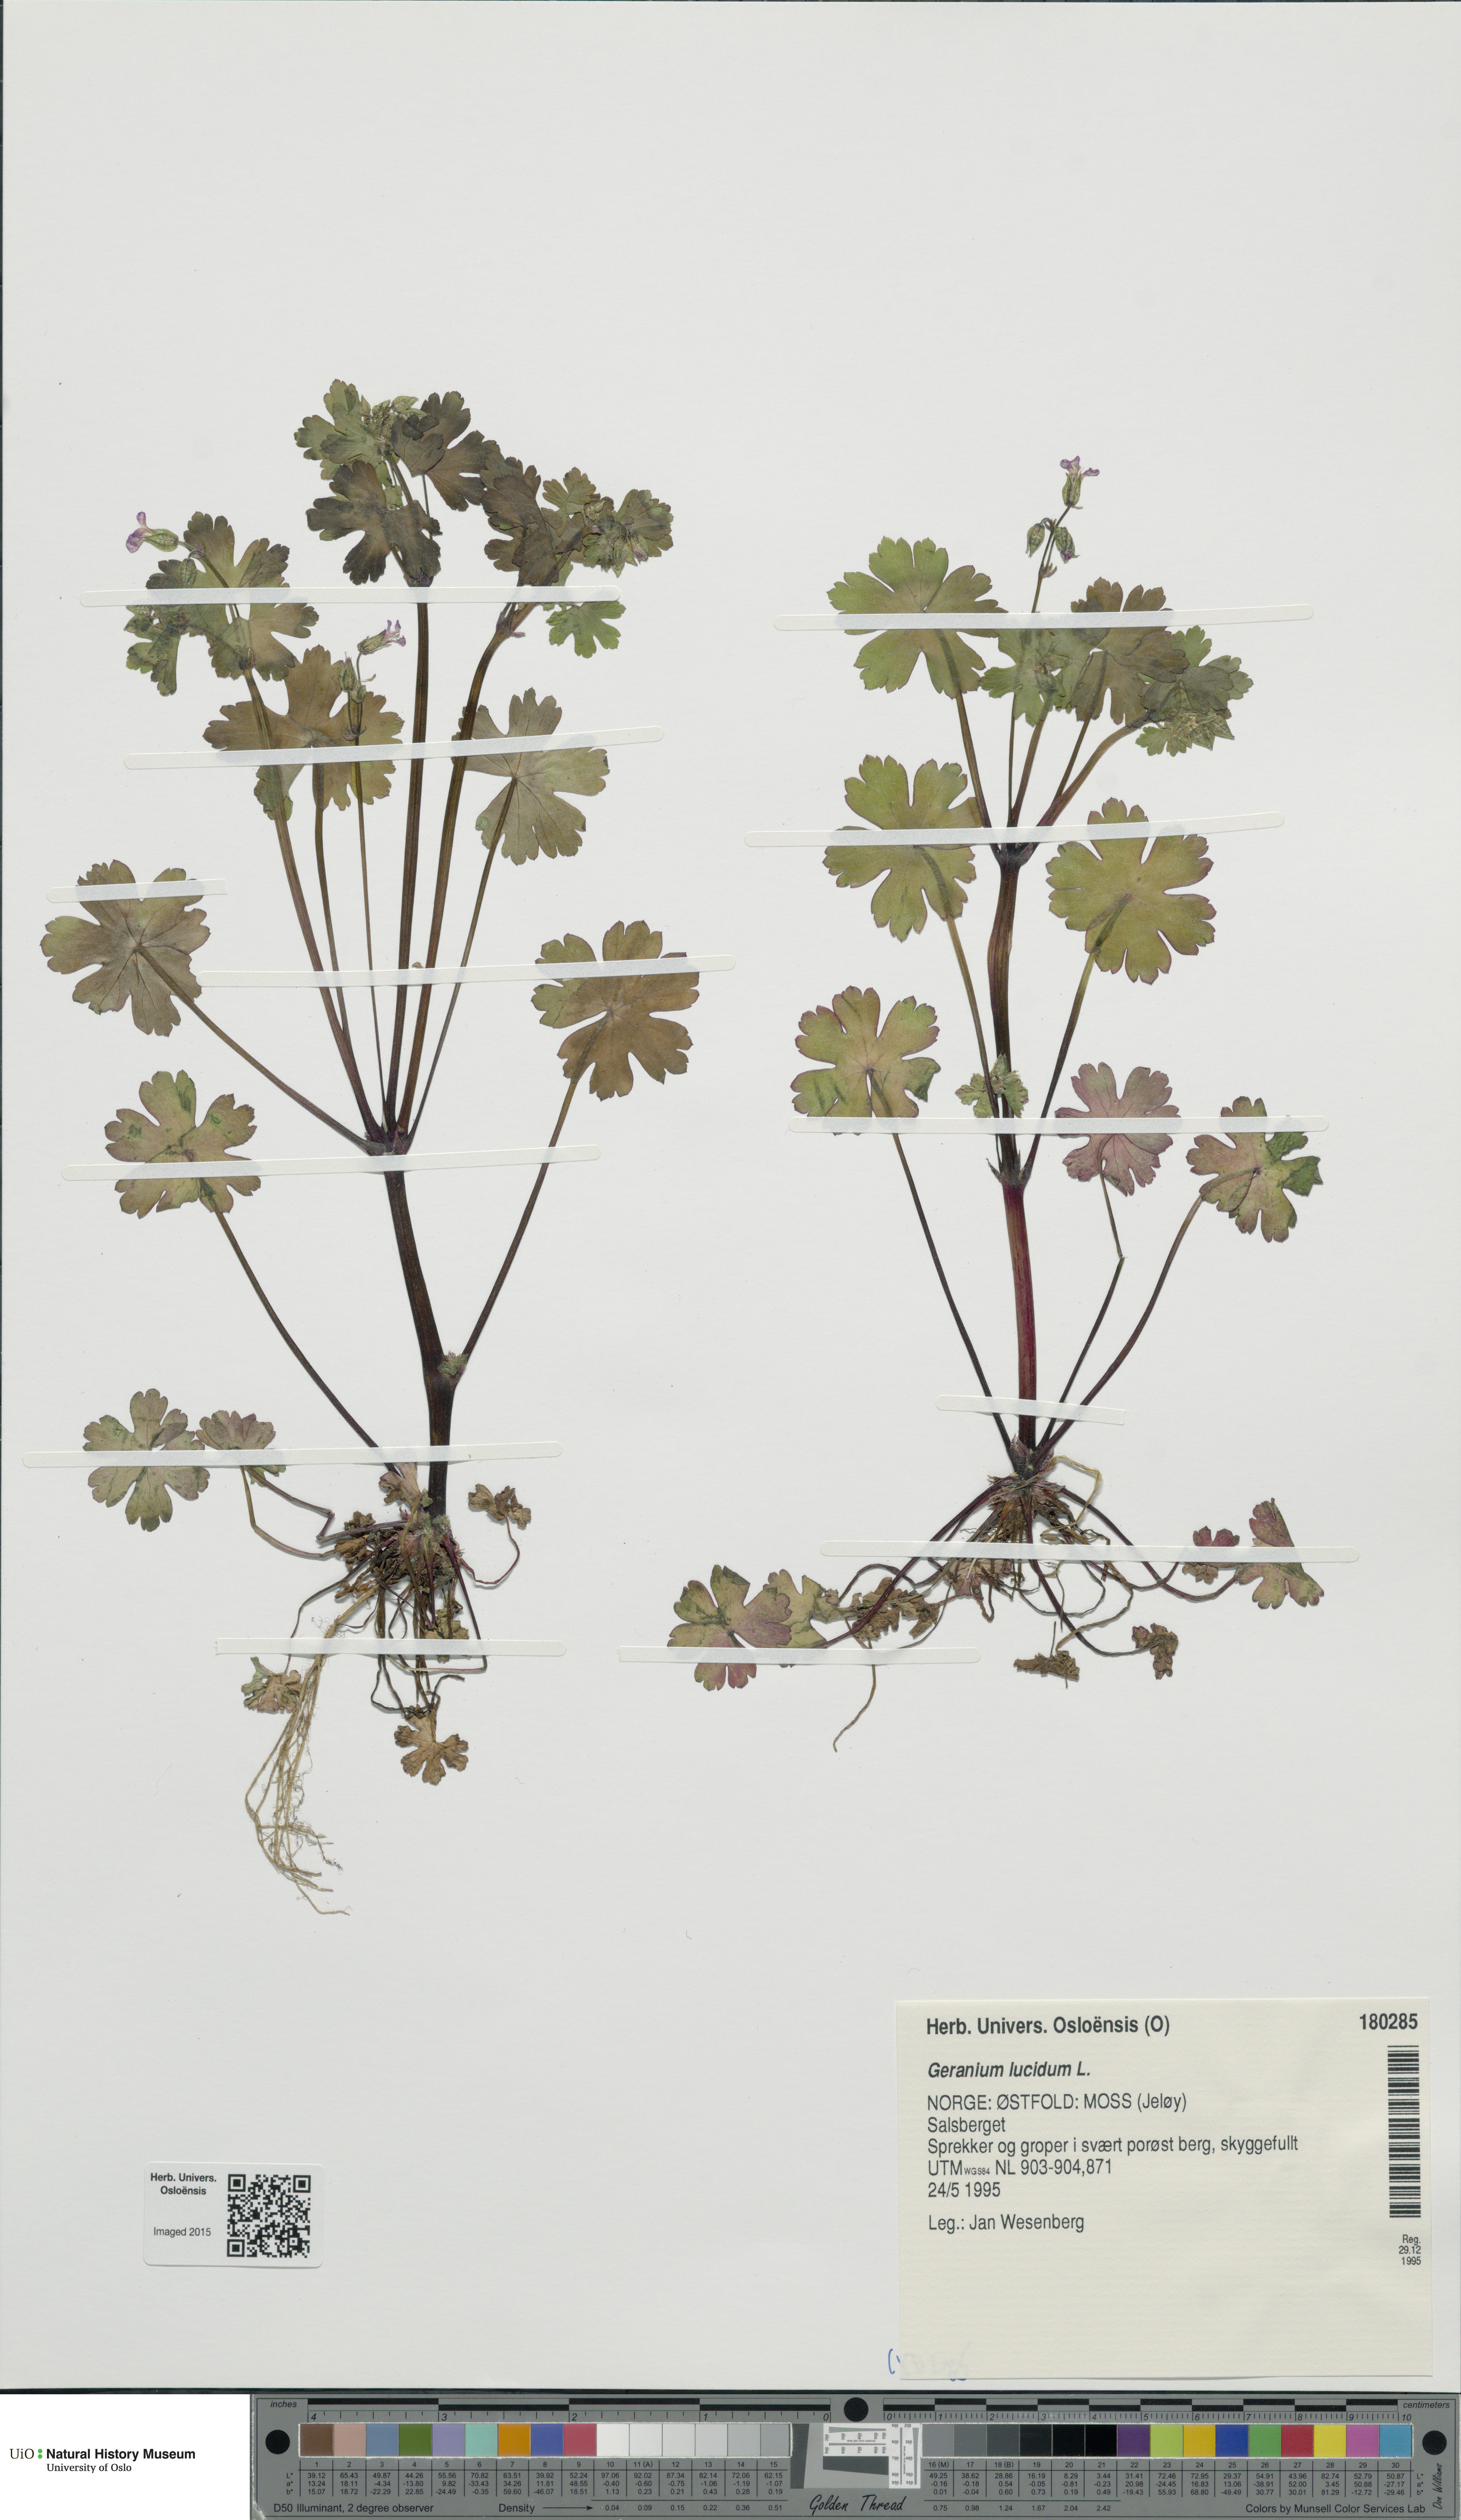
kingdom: Plantae
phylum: Tracheophyta
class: Magnoliopsida
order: Geraniales
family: Geraniaceae
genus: Geranium
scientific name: Geranium lucidum
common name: Shining crane's-bill
